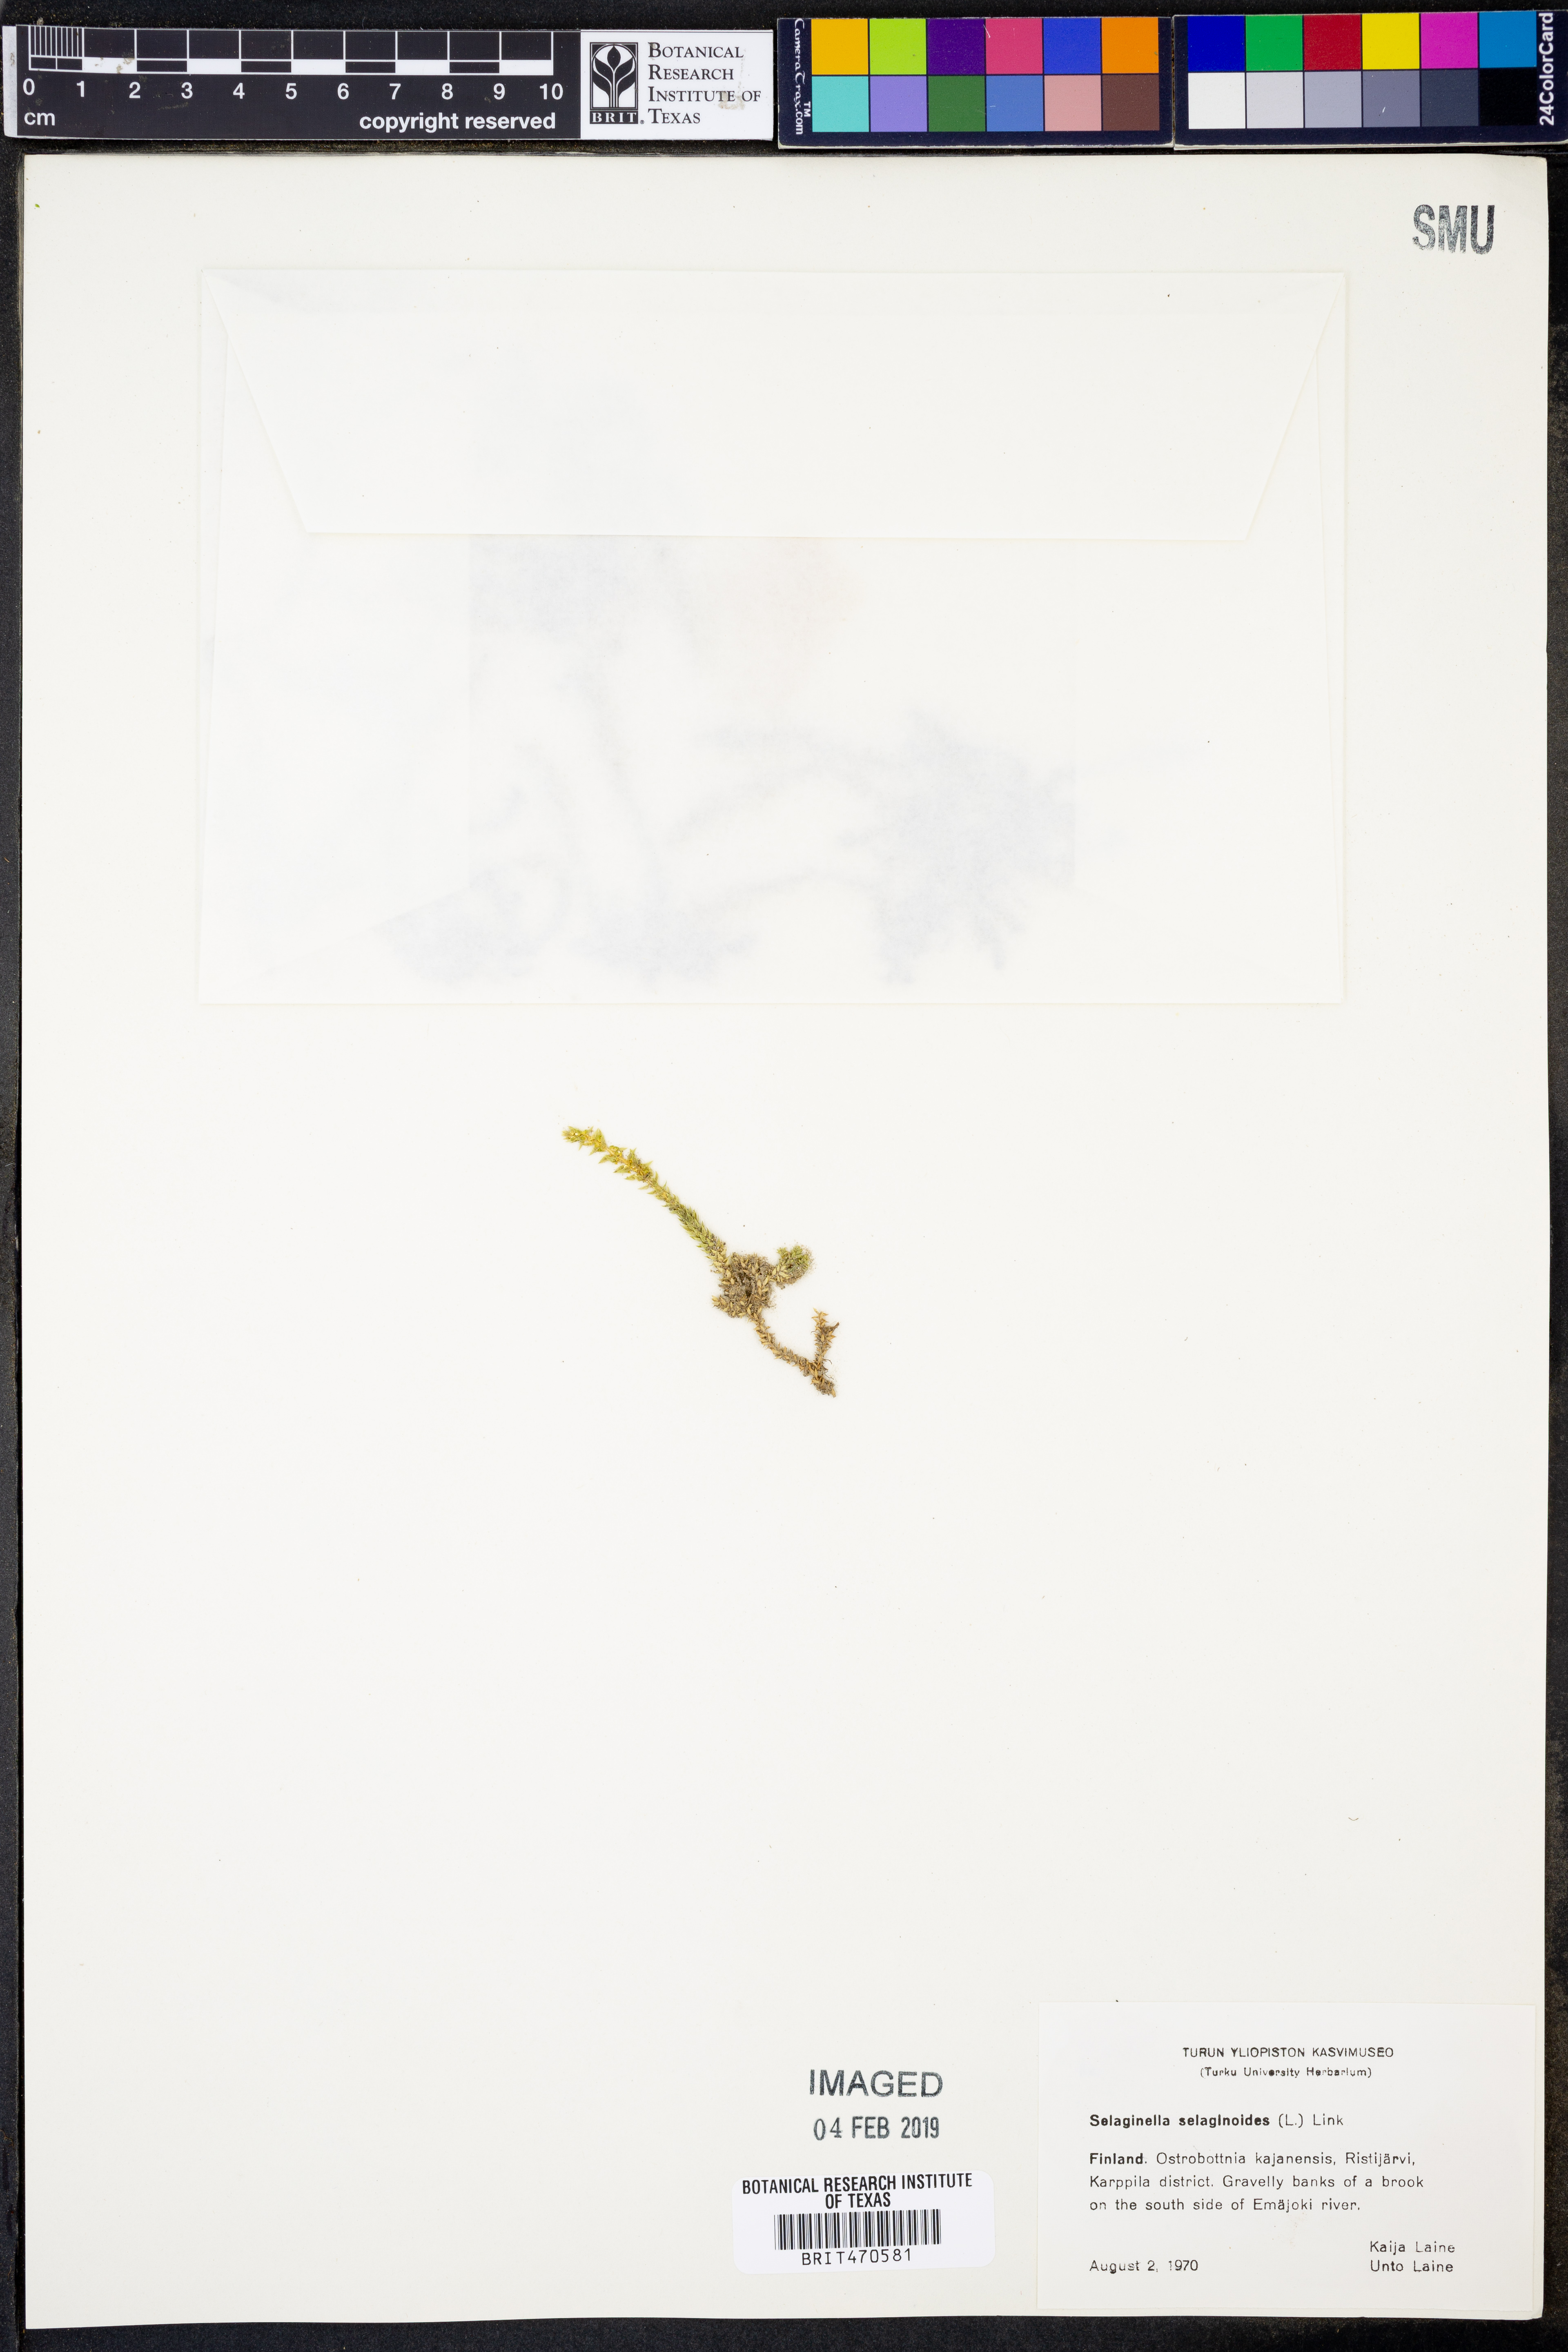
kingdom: Plantae
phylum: Tracheophyta
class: Lycopodiopsida
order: Selaginellales
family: Selaginellaceae
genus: Selaginella
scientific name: Selaginella selaginoides
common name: Prickly mountain-moss
